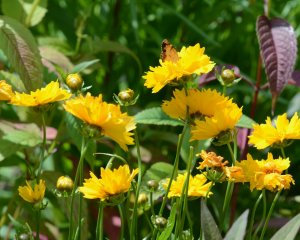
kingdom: Animalia
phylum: Arthropoda
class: Insecta
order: Lepidoptera
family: Nymphalidae
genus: Phyciodes
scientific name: Phyciodes tharos
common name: Northern Crescent
